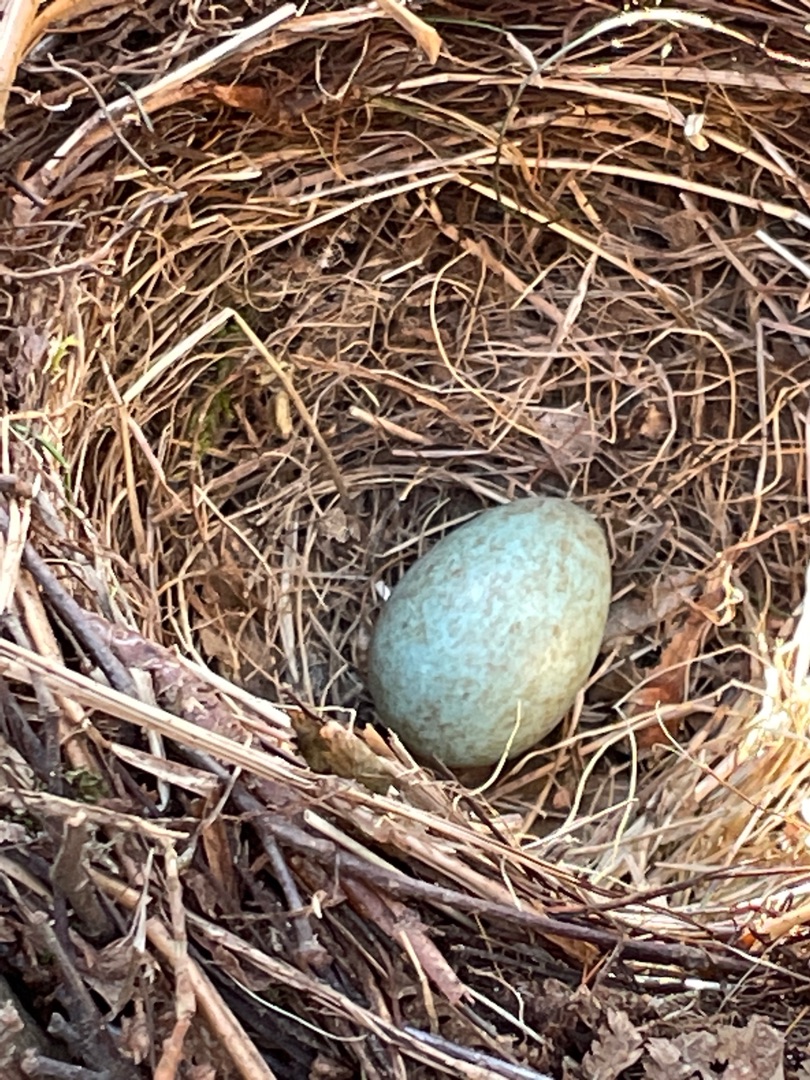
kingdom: Animalia
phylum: Chordata
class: Aves
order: Passeriformes
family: Turdidae
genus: Turdus
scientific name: Turdus merula
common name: Solsort
